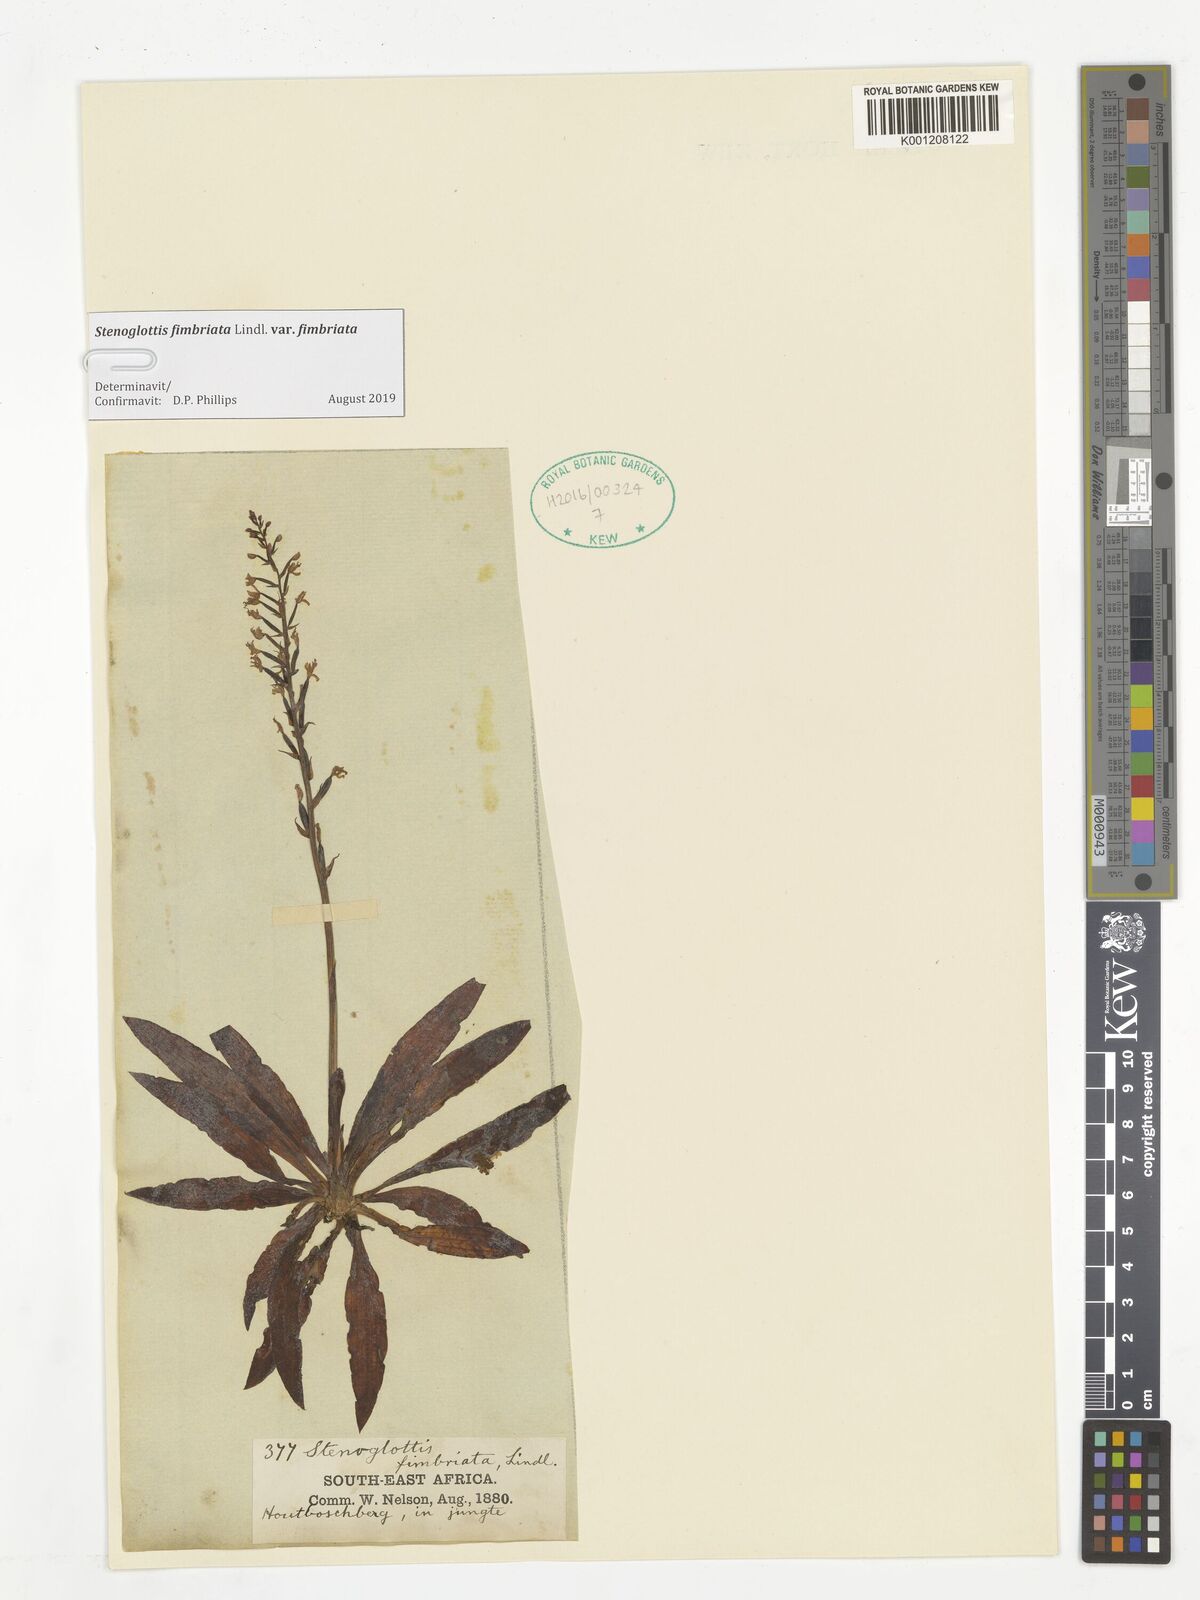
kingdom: Plantae
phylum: Tracheophyta
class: Liliopsida
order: Asparagales
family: Orchidaceae
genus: Stenoglottis
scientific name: Stenoglottis fimbriata
